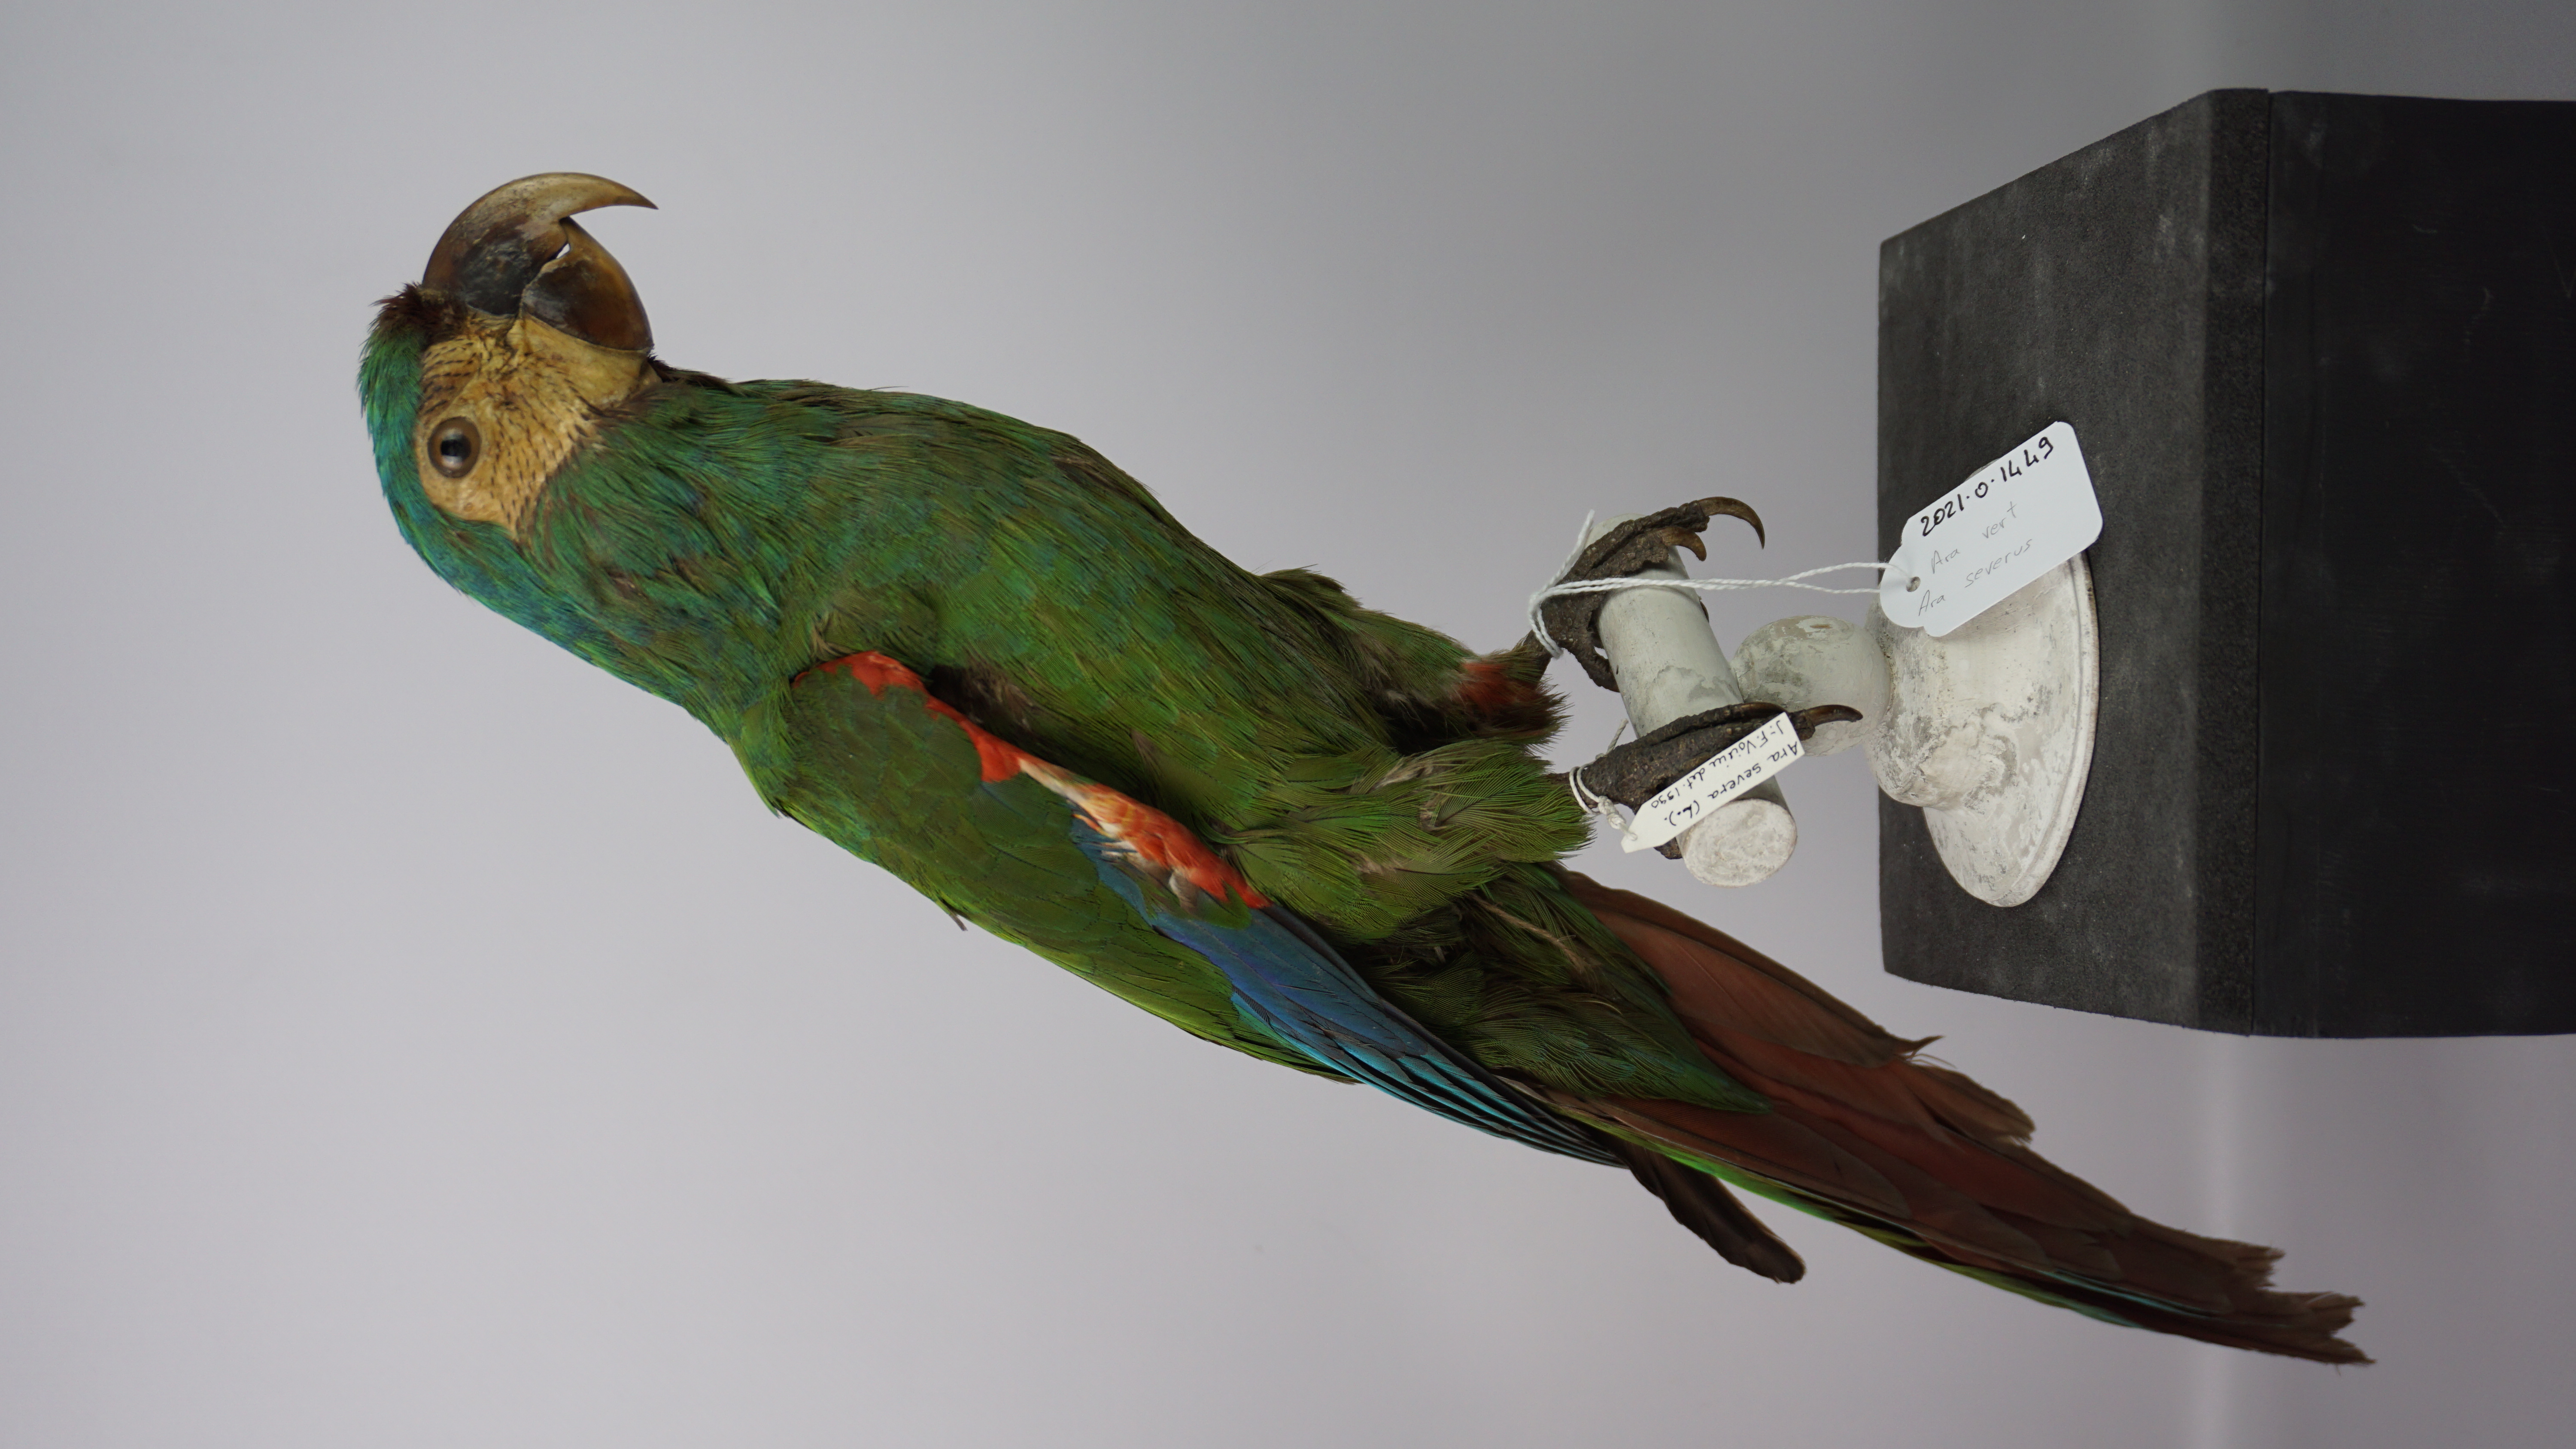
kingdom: Animalia
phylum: Chordata
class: Aves
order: Psittaciformes
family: Psittacidae
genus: Ara
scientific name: Ara severus
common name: Chestnut-fronted macaw
